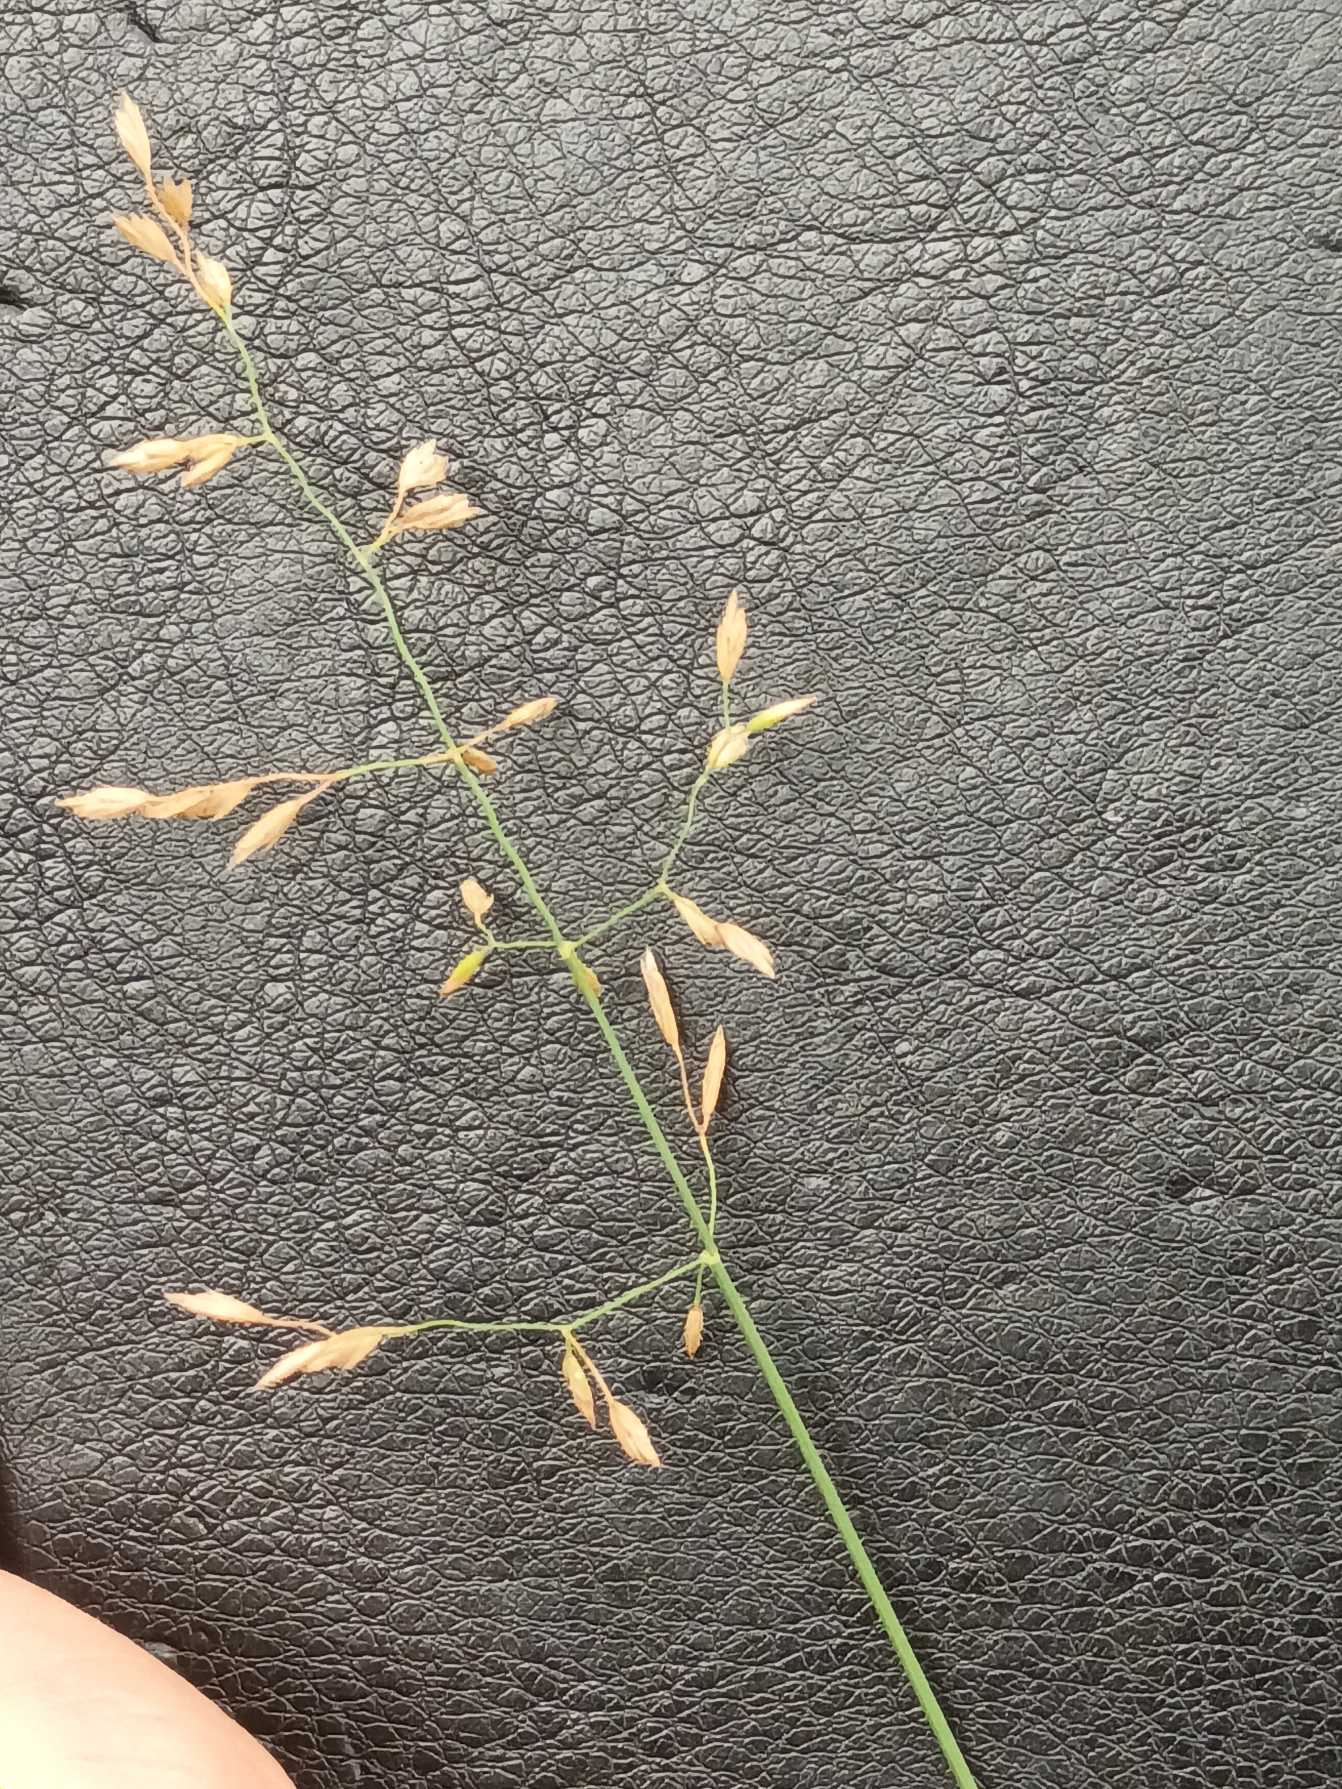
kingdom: Plantae
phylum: Tracheophyta
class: Liliopsida
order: Poales
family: Poaceae
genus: Poa
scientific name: Poa compressa
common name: Fladstrået rapgræs
